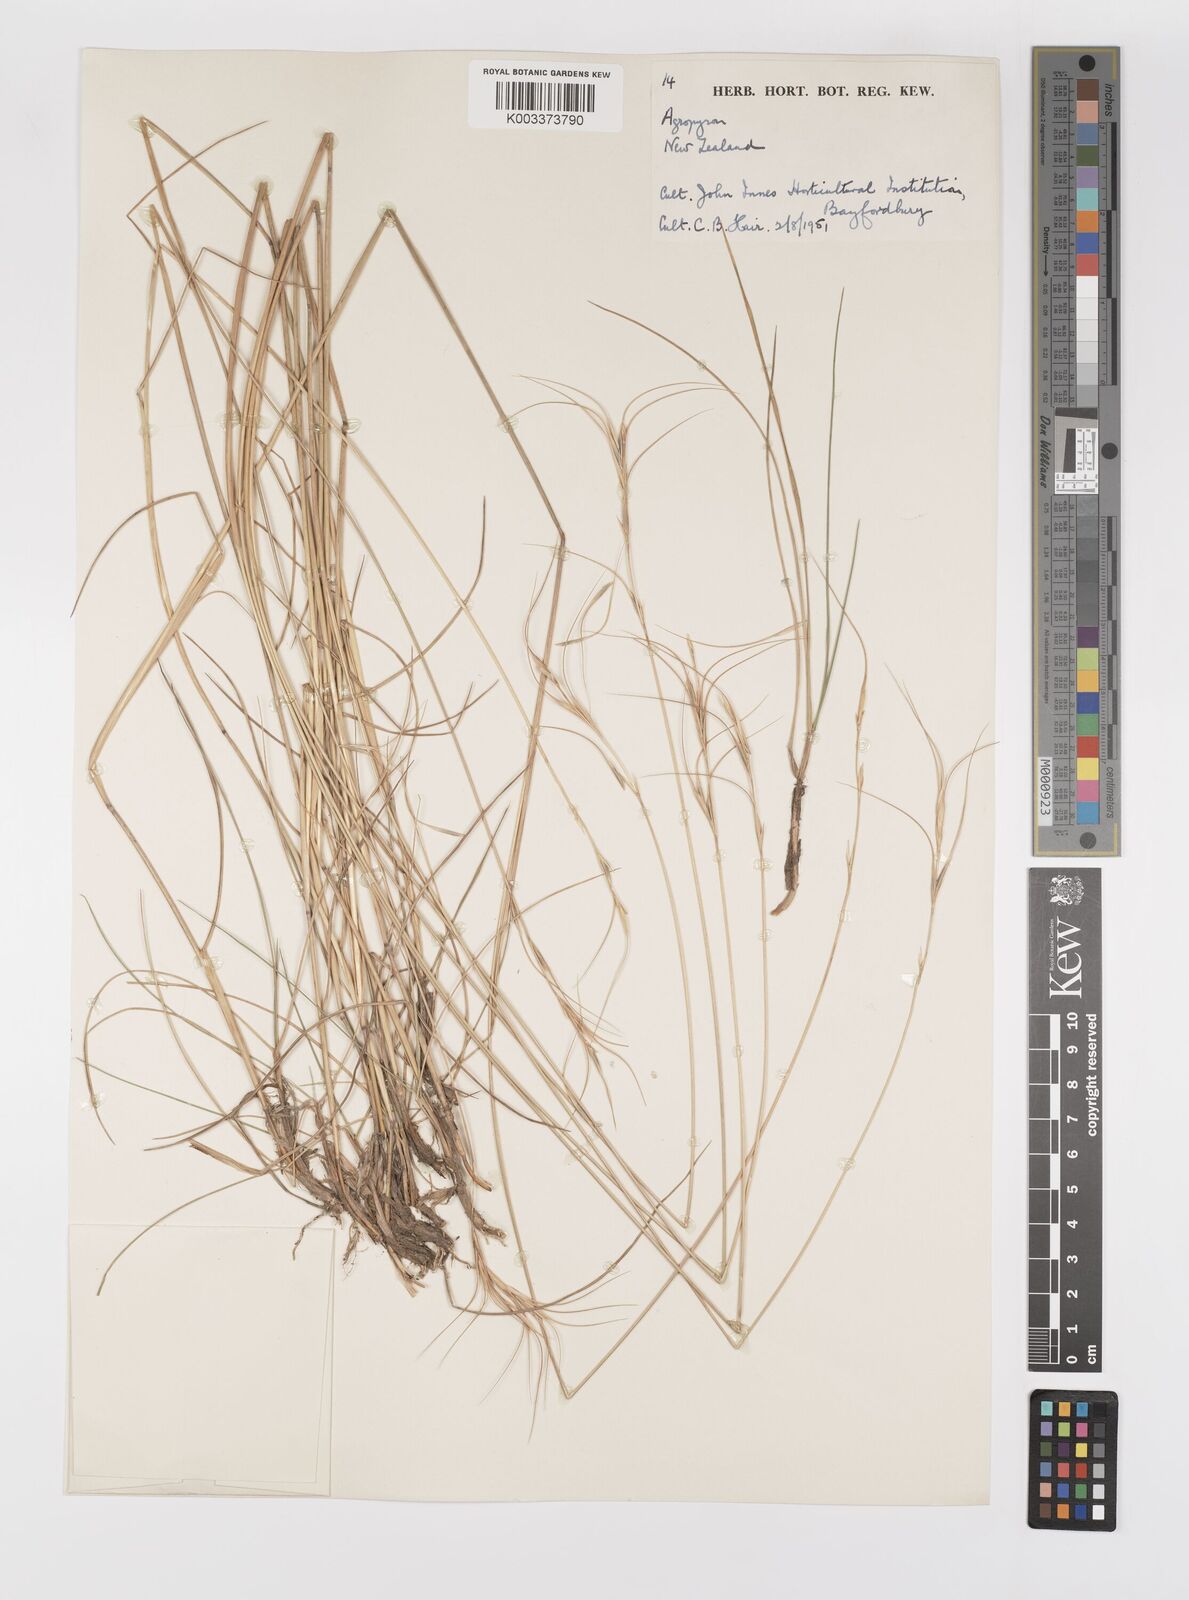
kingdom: Plantae
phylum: Tracheophyta
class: Liliopsida
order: Poales
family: Poaceae
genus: Elymus
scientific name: Elymus
